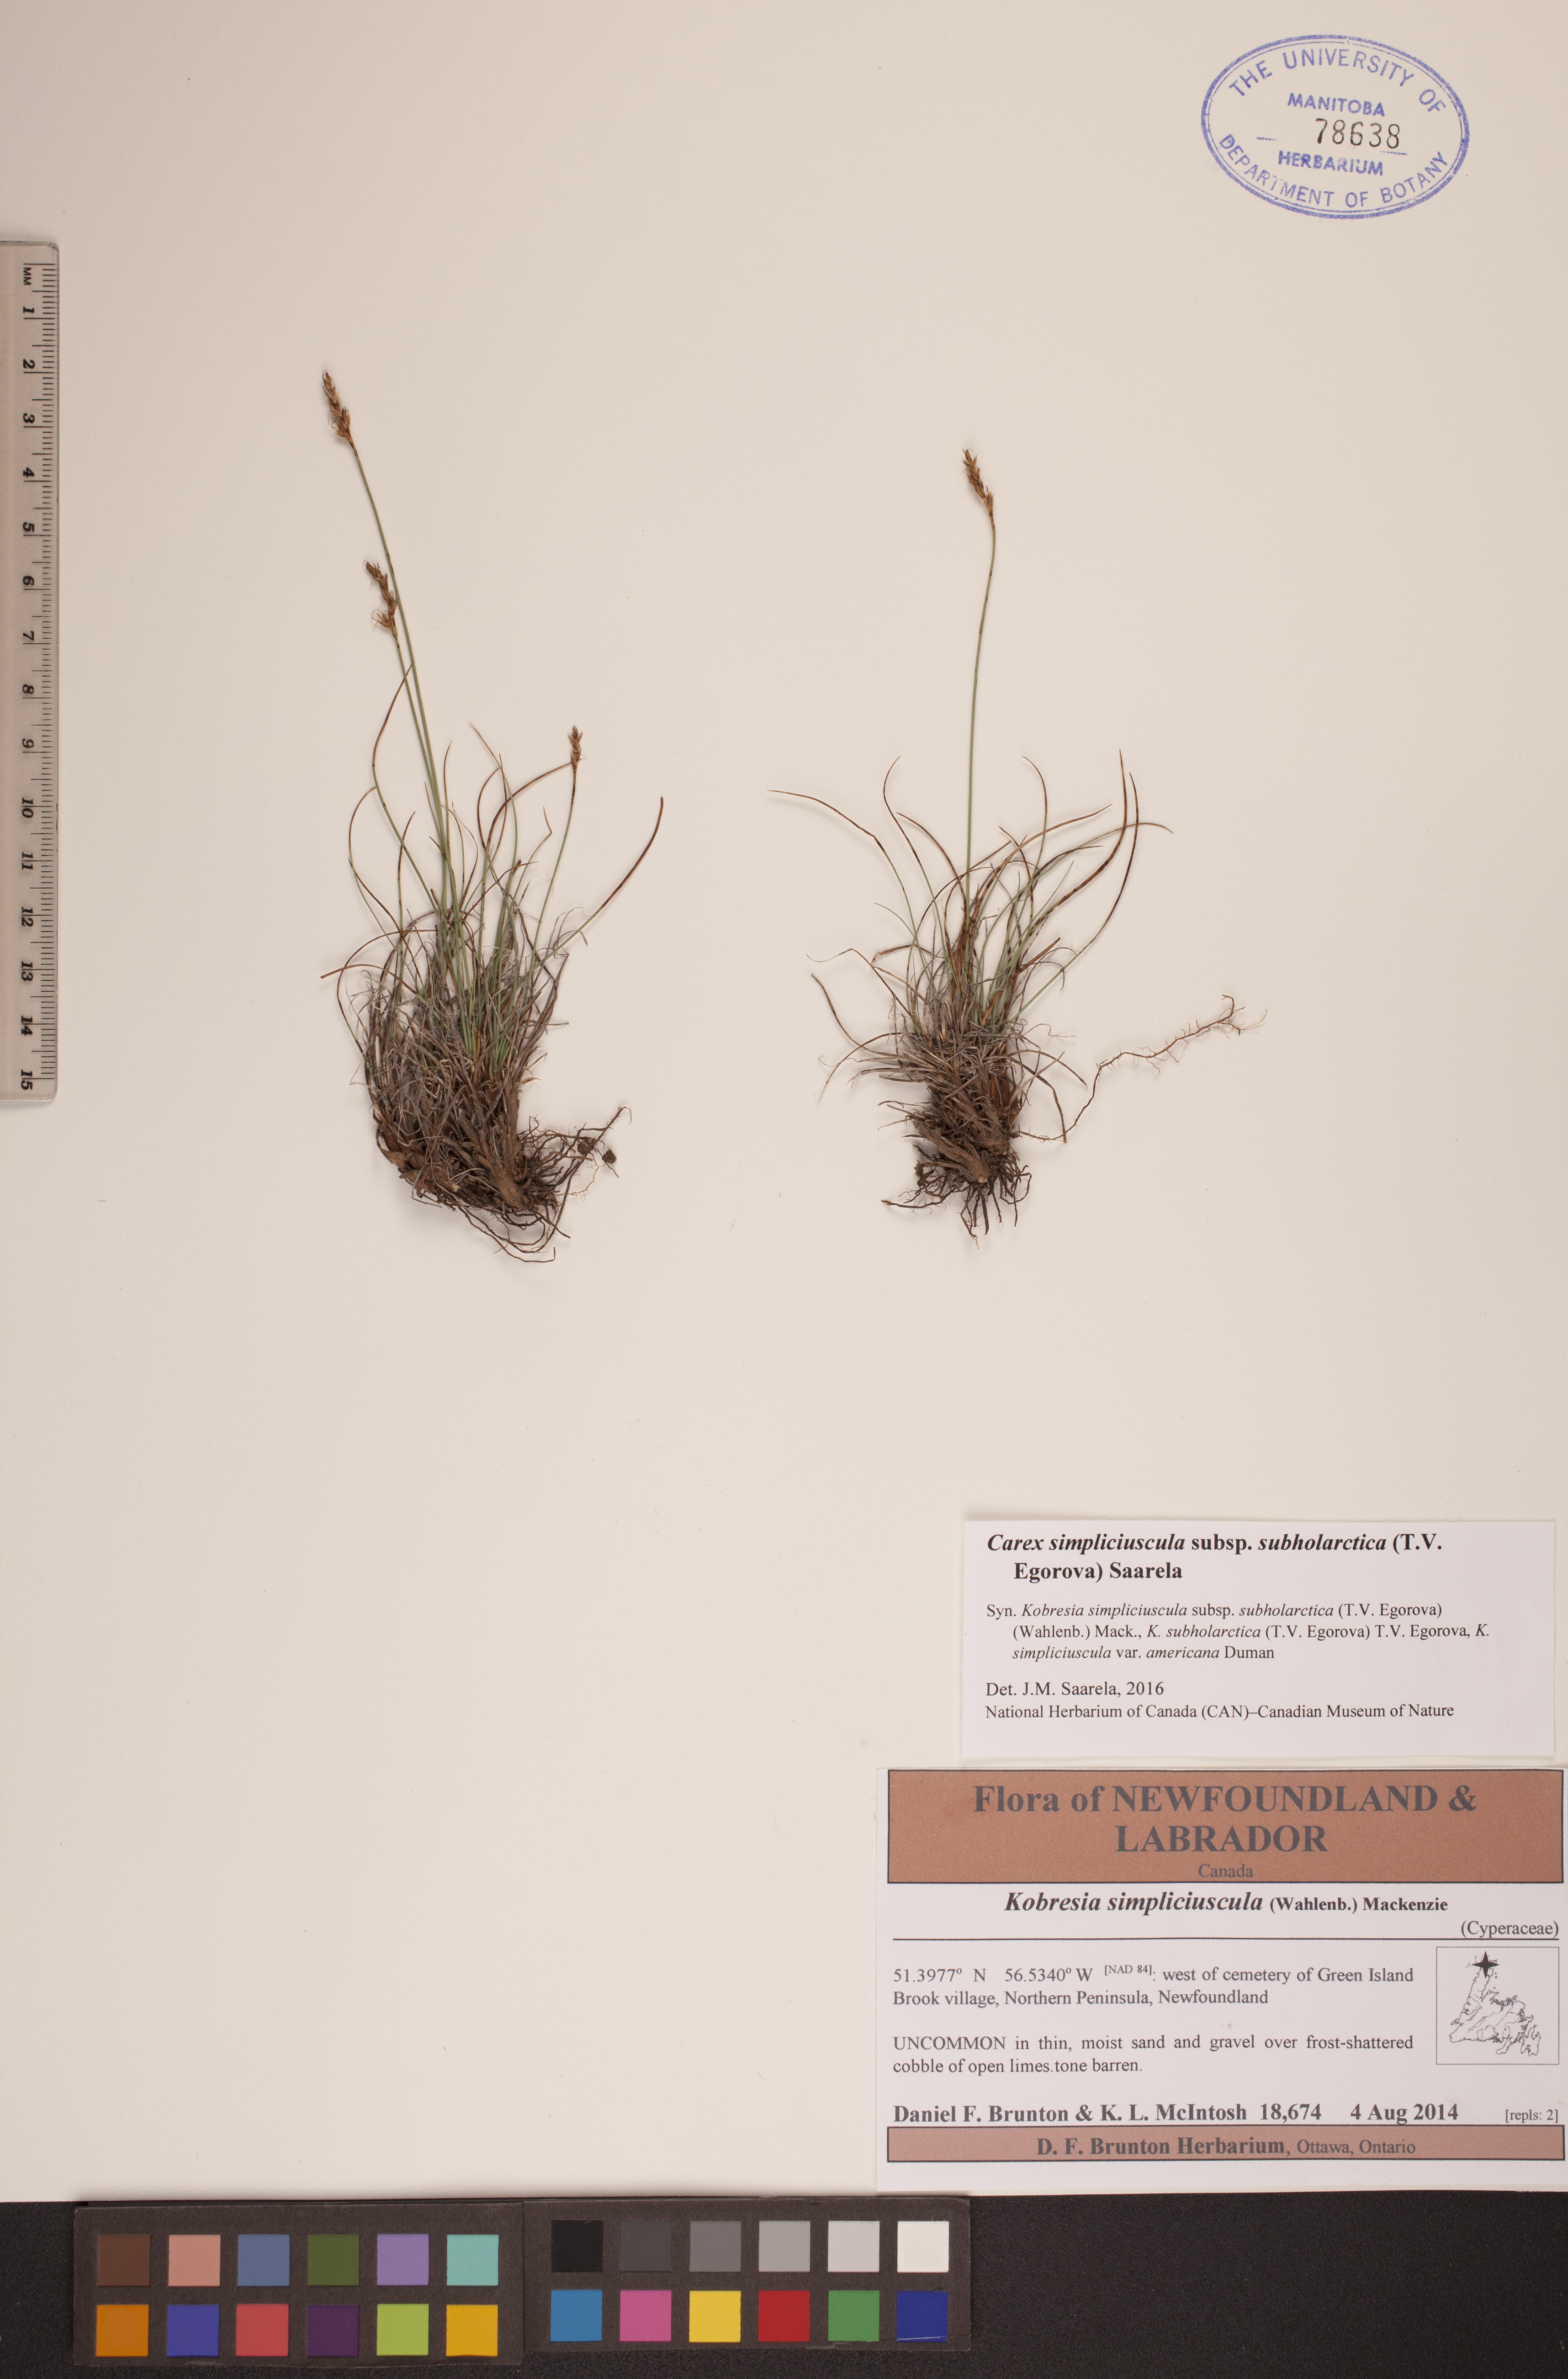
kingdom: Plantae
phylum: Tracheophyta
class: Liliopsida
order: Poales
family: Cyperaceae
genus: Carex
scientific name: Carex simpliciuscula
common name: Simple bog sedge
